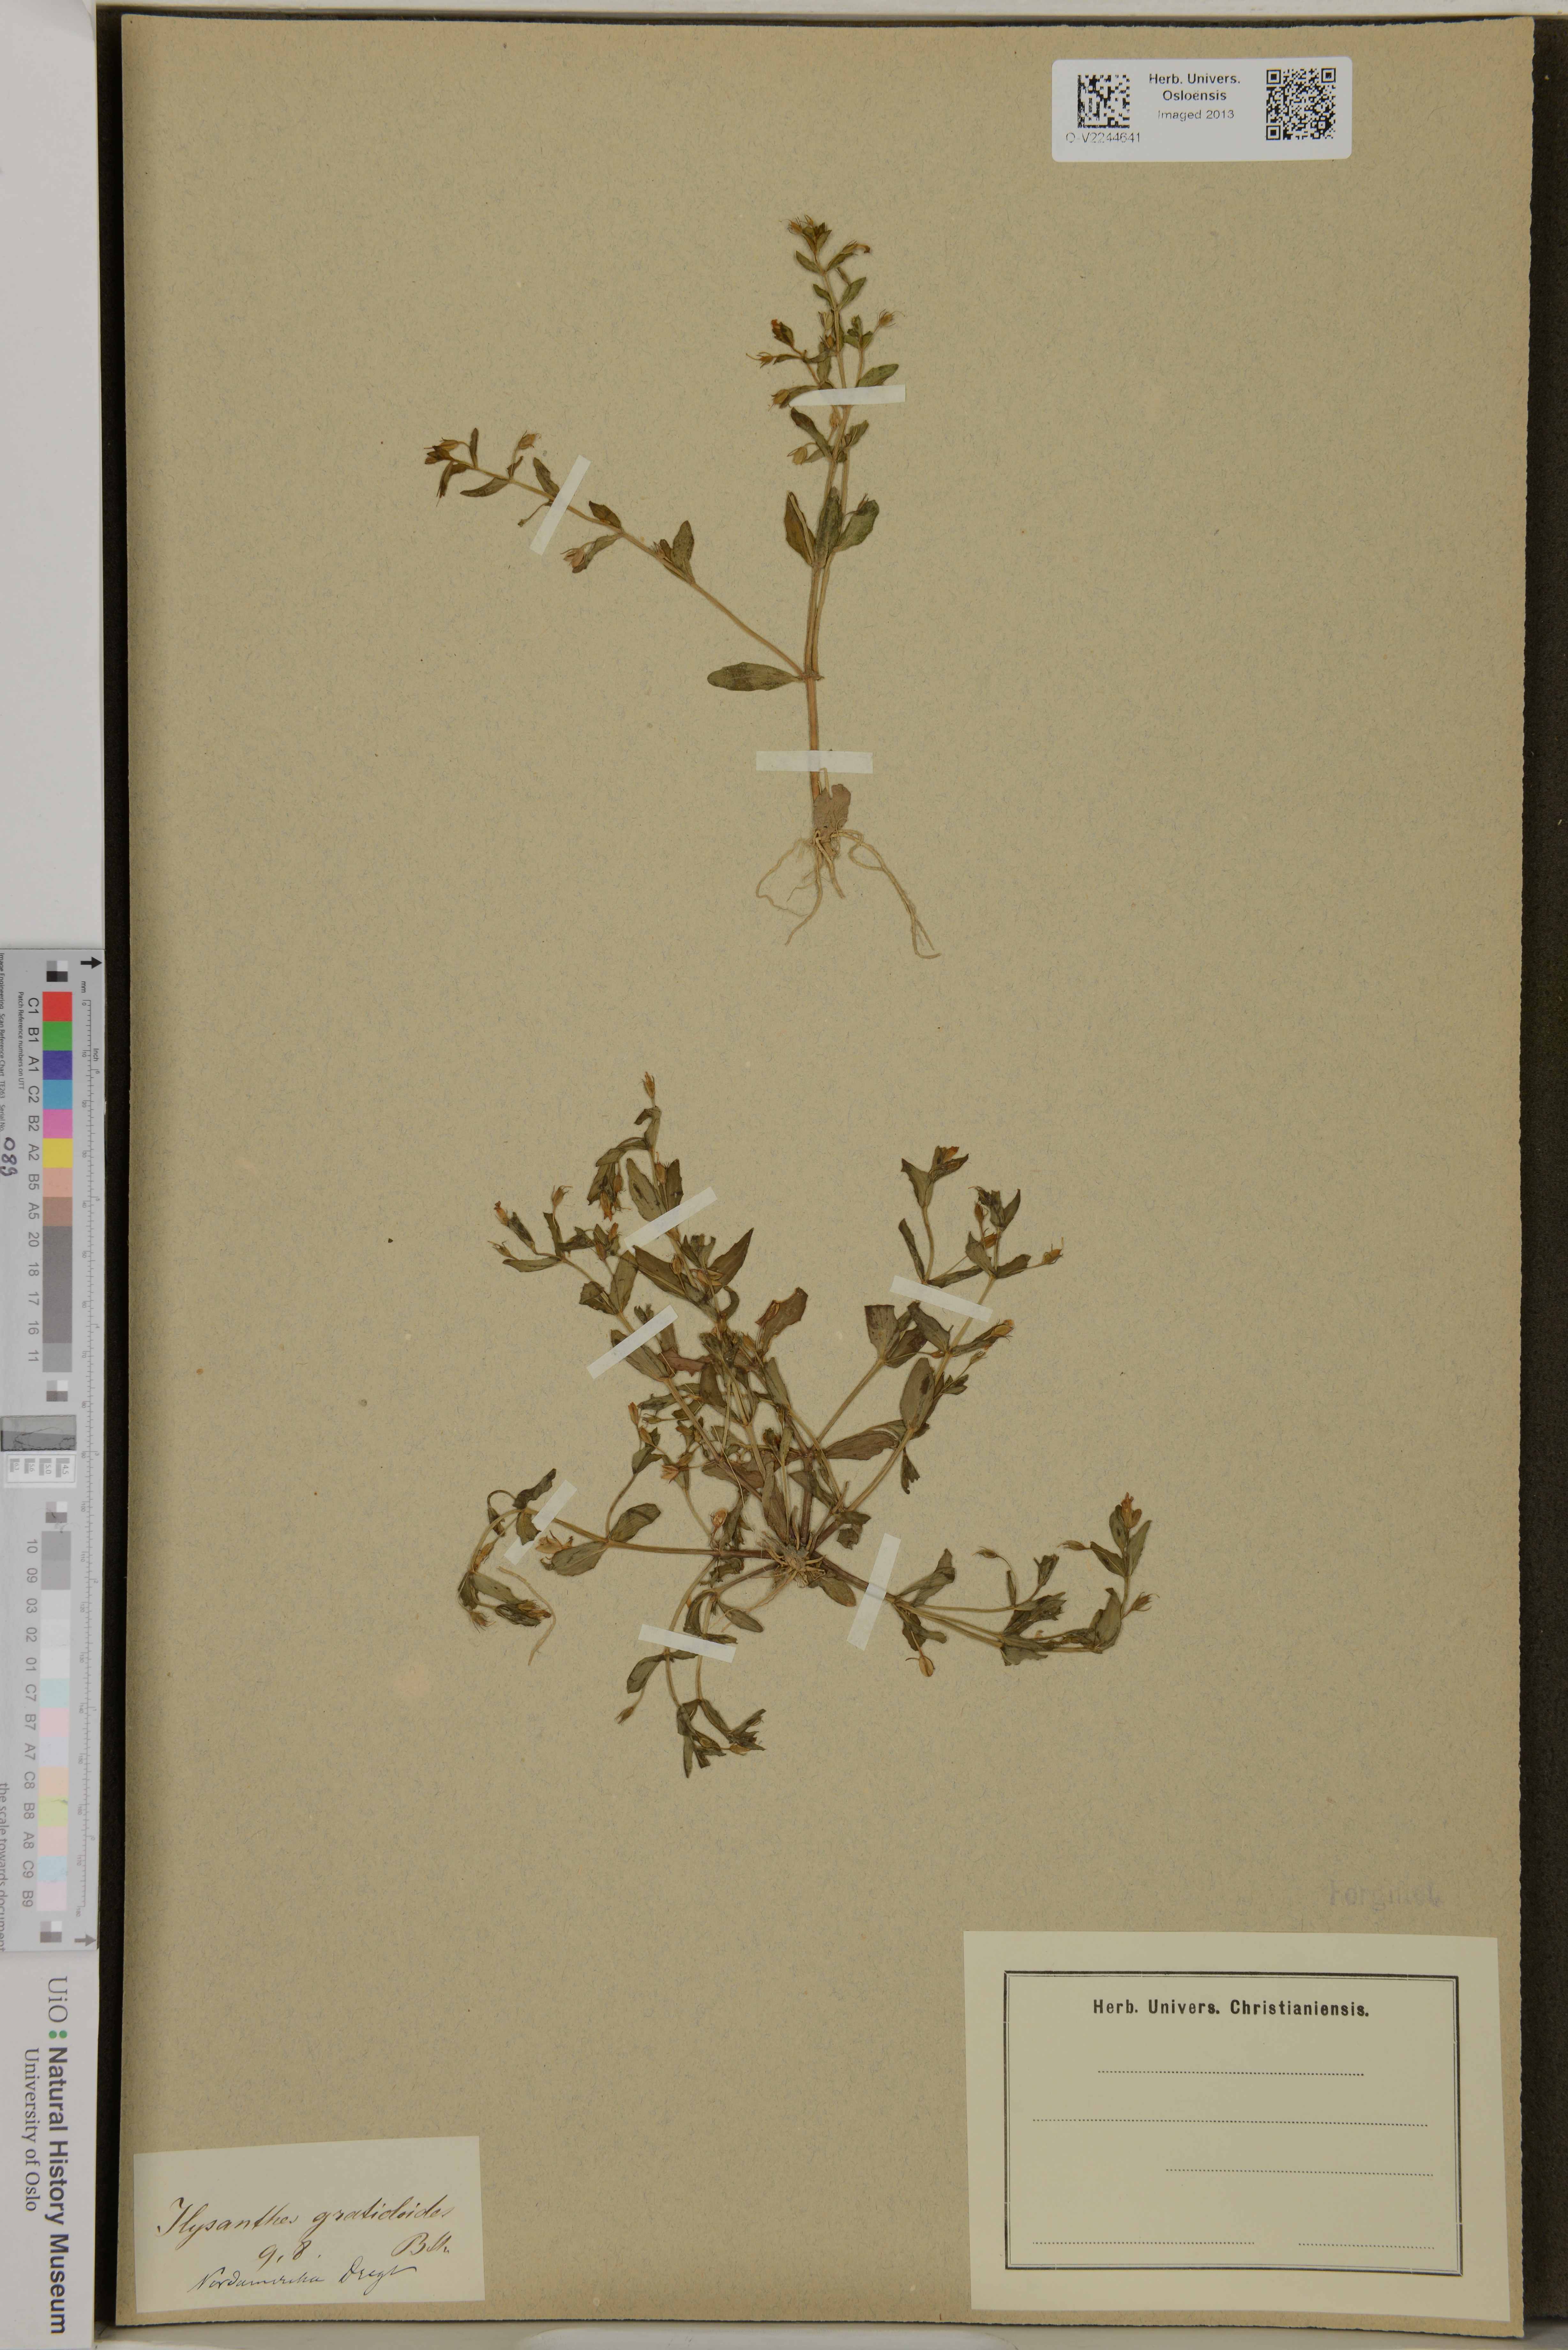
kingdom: Plantae
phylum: Tracheophyta
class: Magnoliopsida
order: Lamiales
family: Linderniaceae
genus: Lindernia
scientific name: Lindernia
